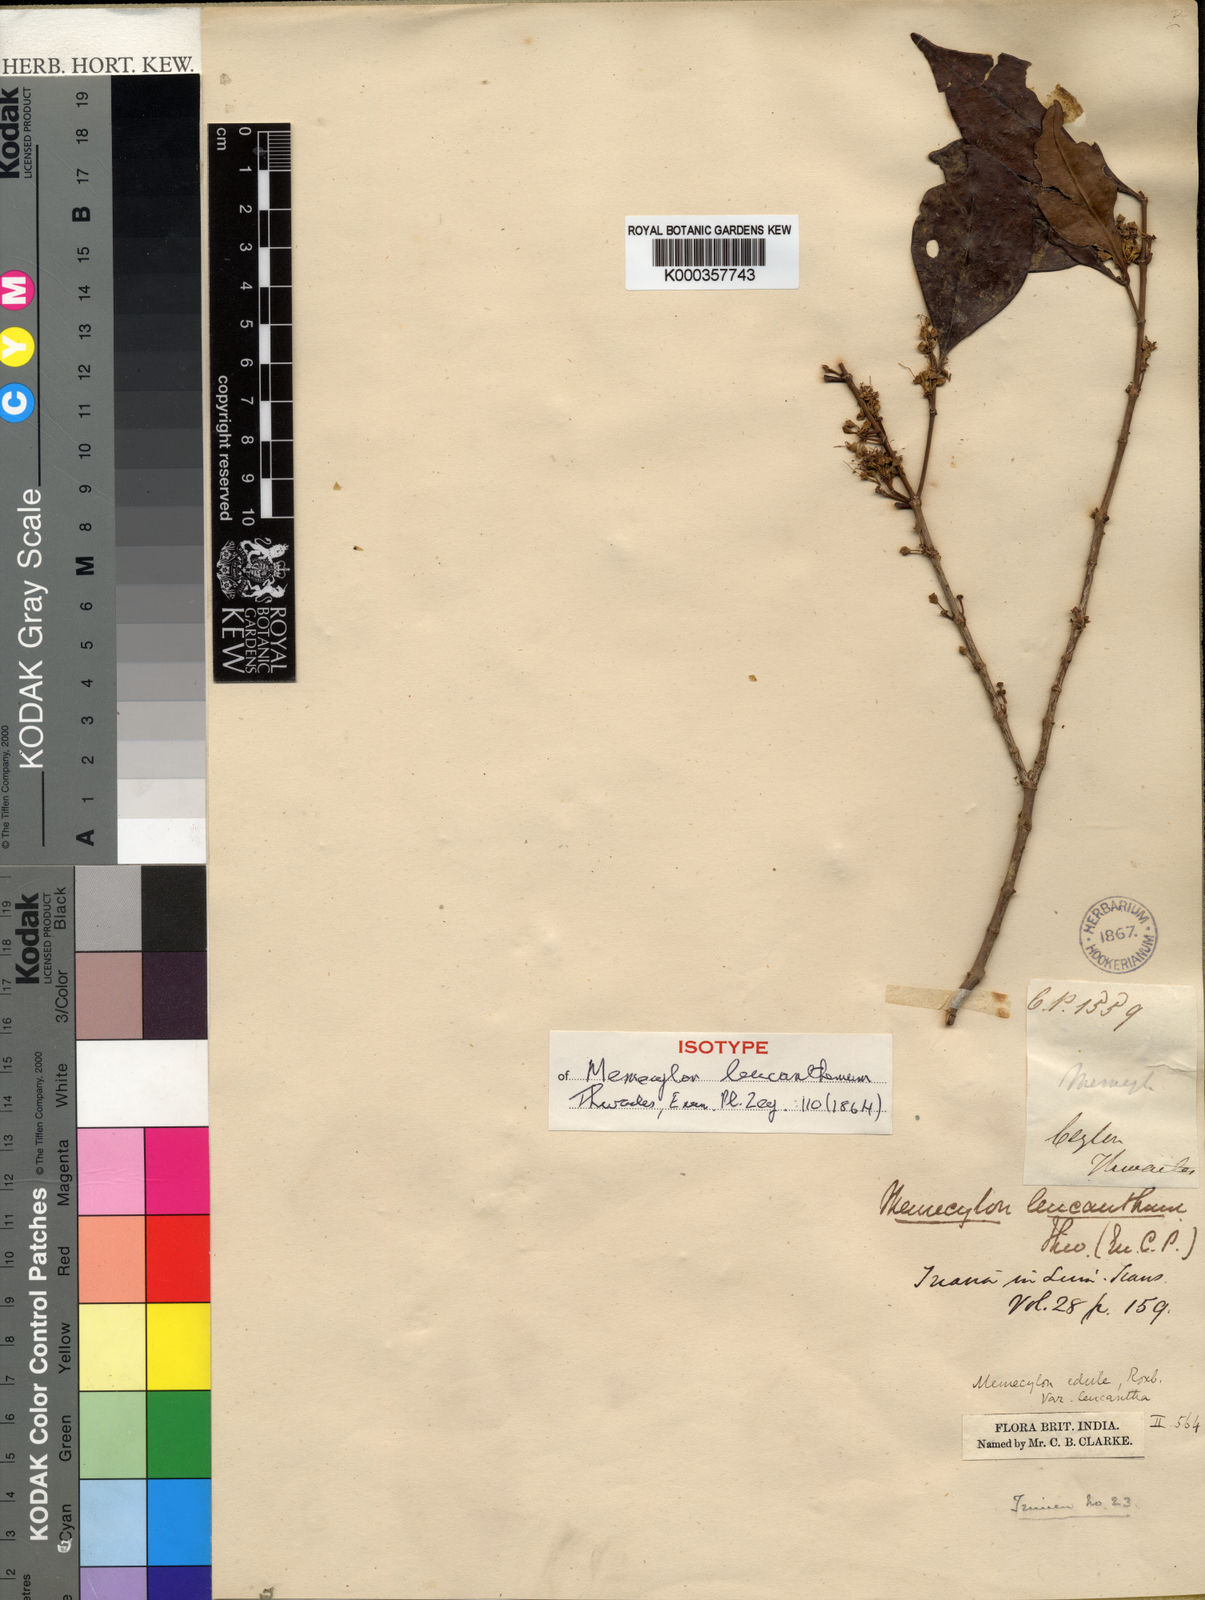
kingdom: Plantae
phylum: Tracheophyta
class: Magnoliopsida
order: Myrtales
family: Melastomataceae
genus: Memecylon
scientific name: Memecylon
